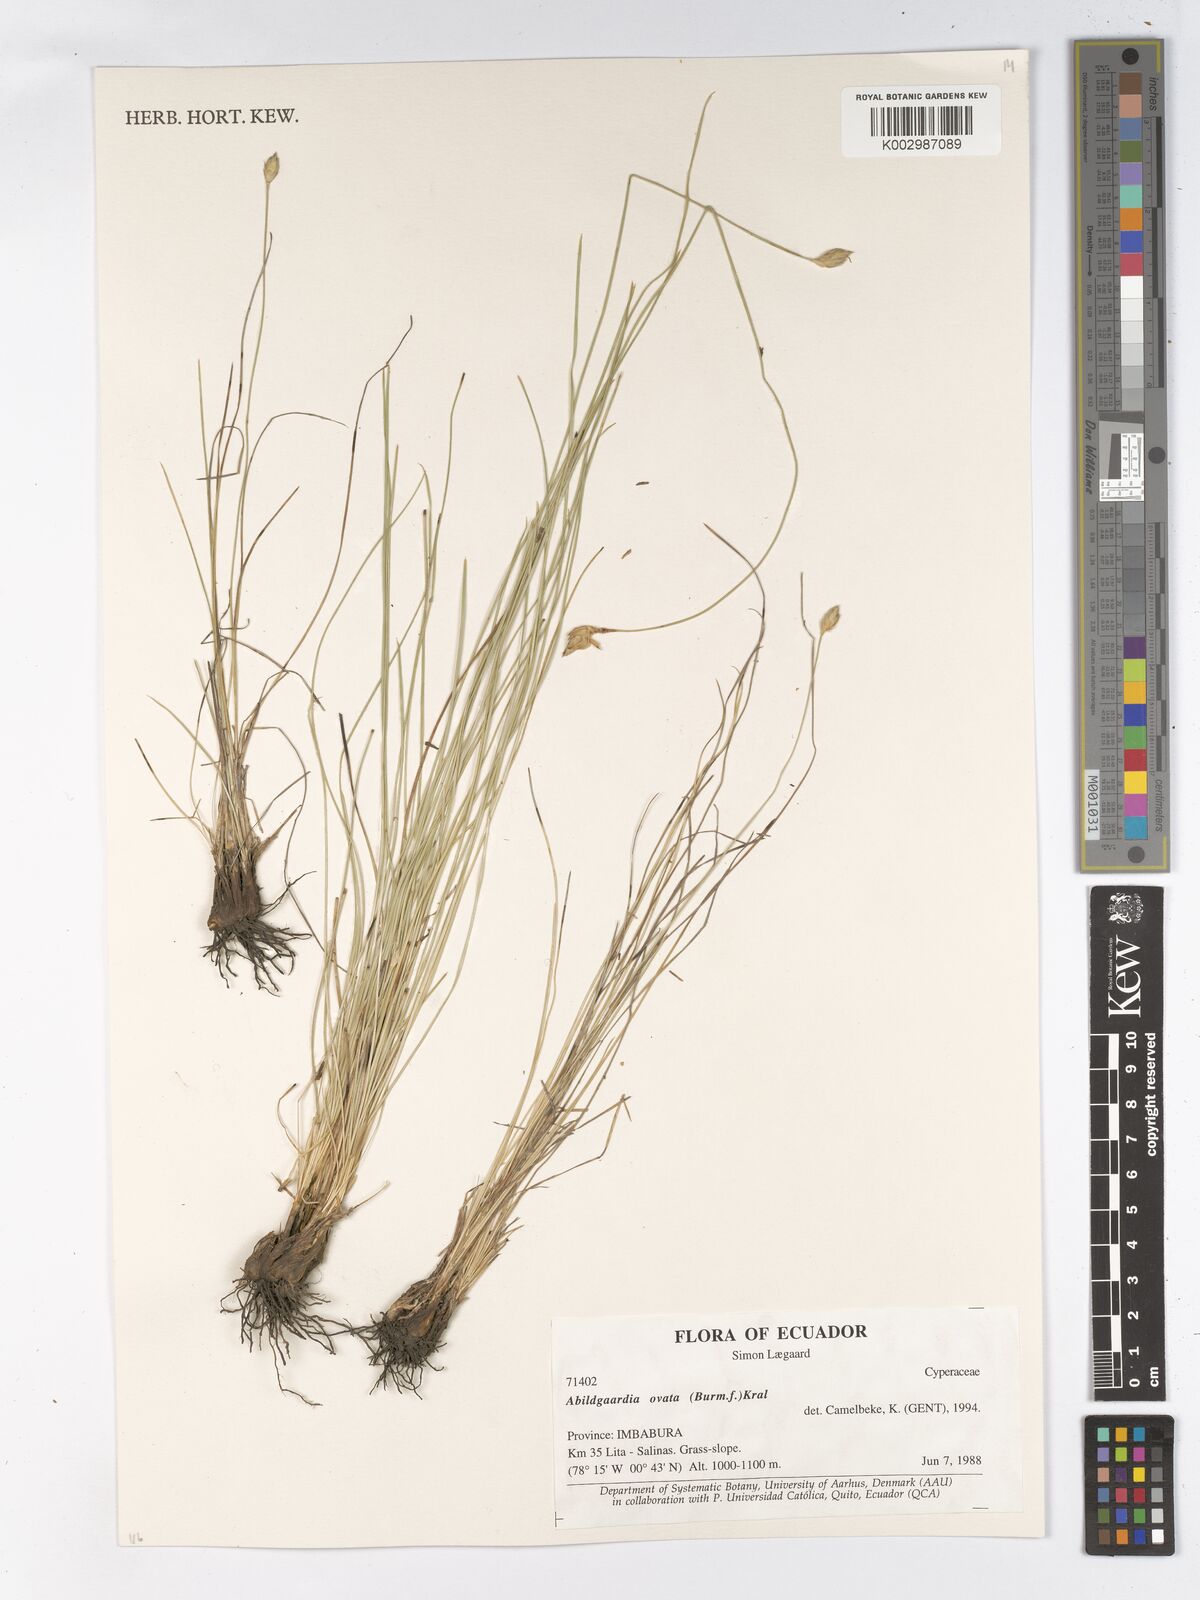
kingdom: Plantae
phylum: Tracheophyta
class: Liliopsida
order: Poales
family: Cyperaceae
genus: Abildgaardia
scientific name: Abildgaardia ovata
